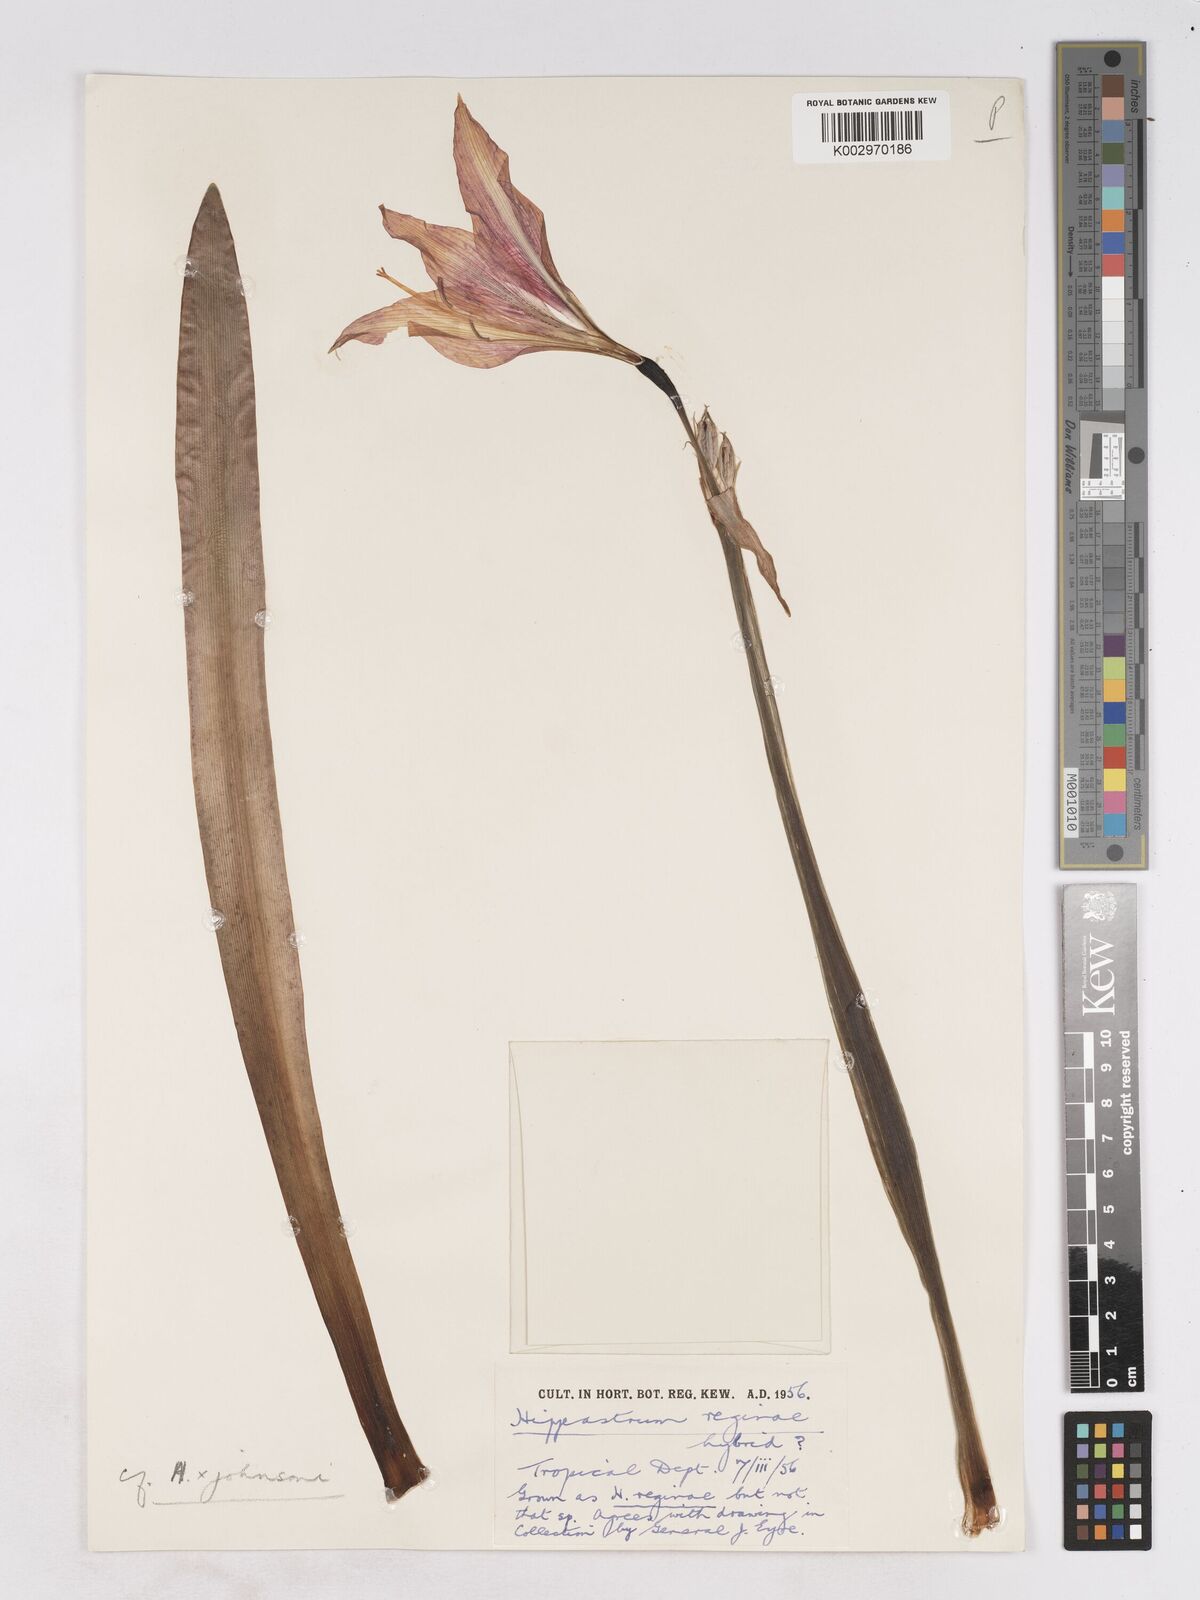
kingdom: Plantae
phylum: Tracheophyta
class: Liliopsida
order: Asparagales
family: Amaryllidaceae
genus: Hippeastrum
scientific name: Hippeastrum johnsonii
